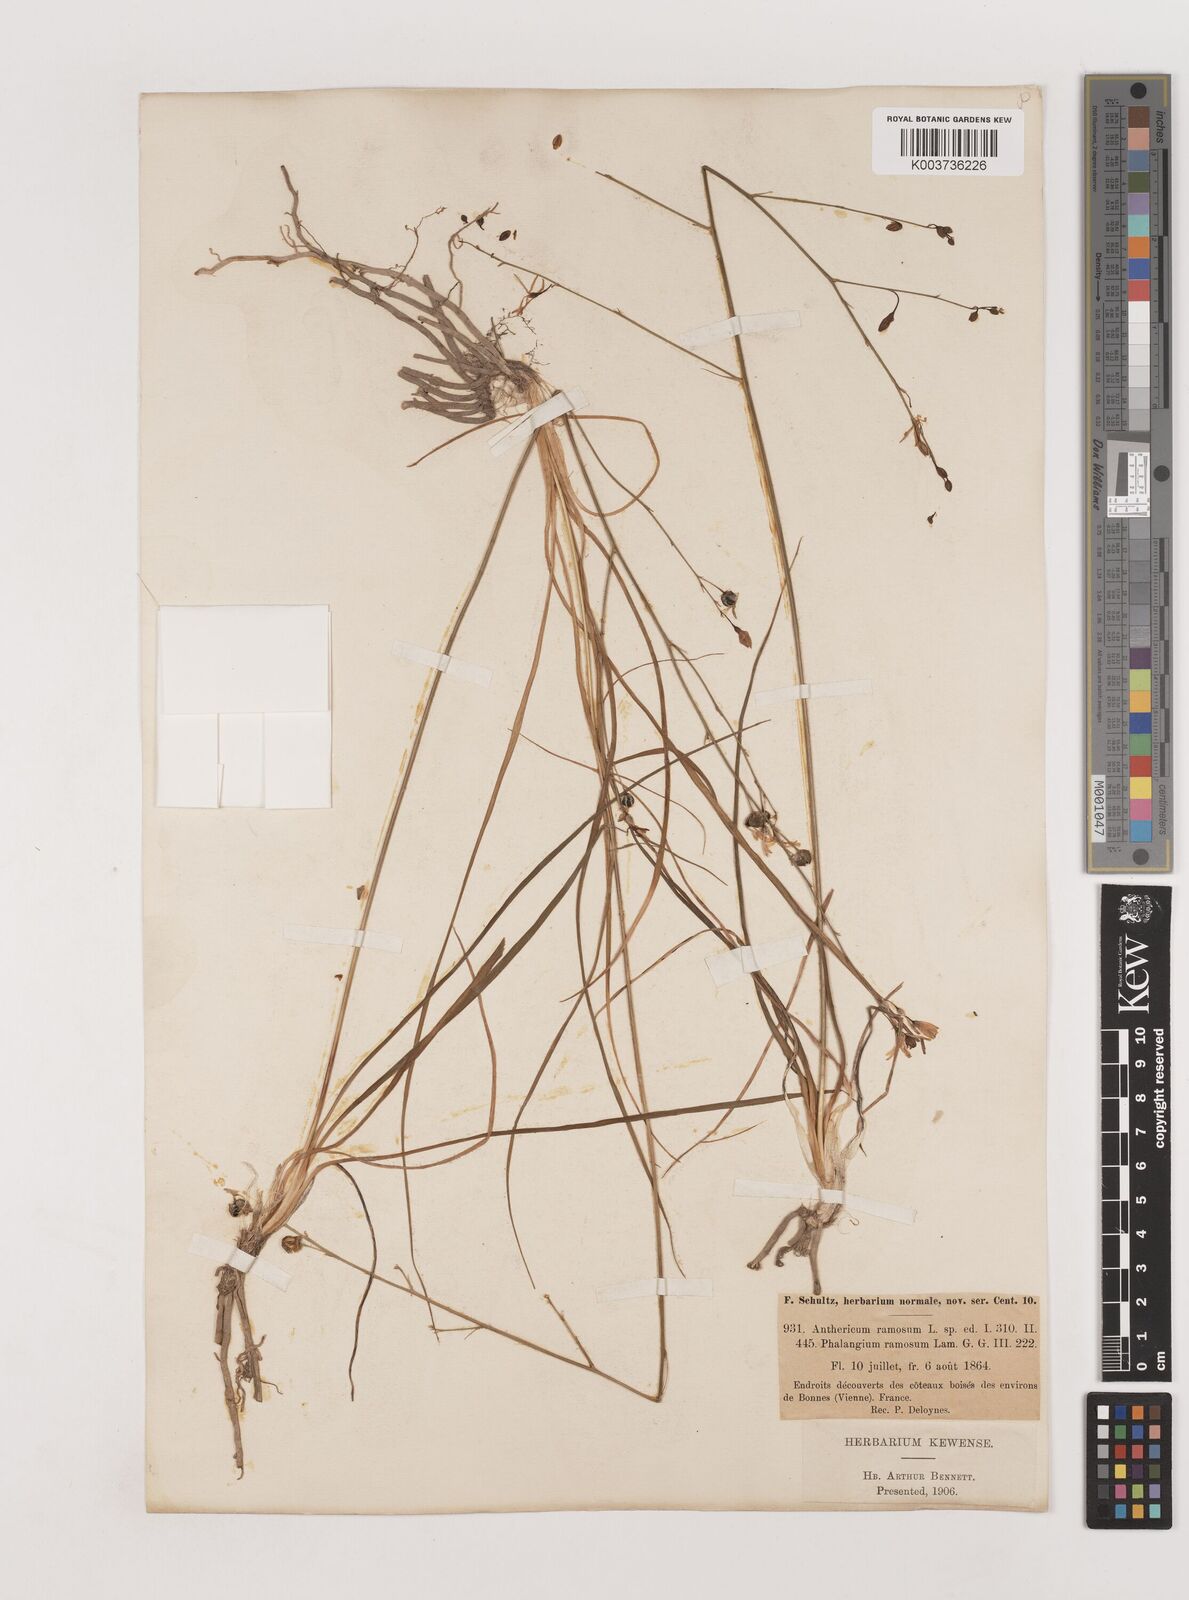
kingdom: Plantae
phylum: Tracheophyta
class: Liliopsida
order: Asparagales
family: Asparagaceae
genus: Anthericum
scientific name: Anthericum ramosum
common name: Branched st. bernard's-lily
